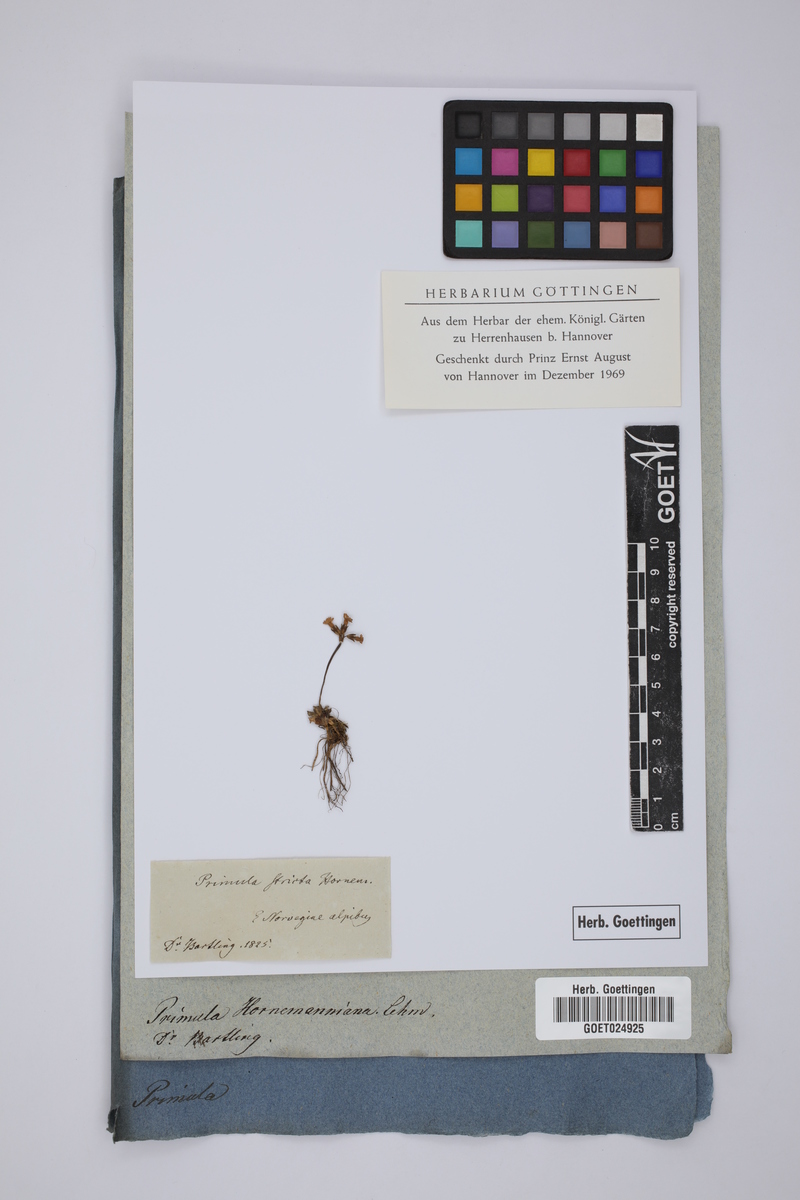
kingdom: Plantae
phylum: Tracheophyta
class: Magnoliopsida
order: Ericales
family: Primulaceae
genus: Primula
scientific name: Primula stricta
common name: Coastal primrose
